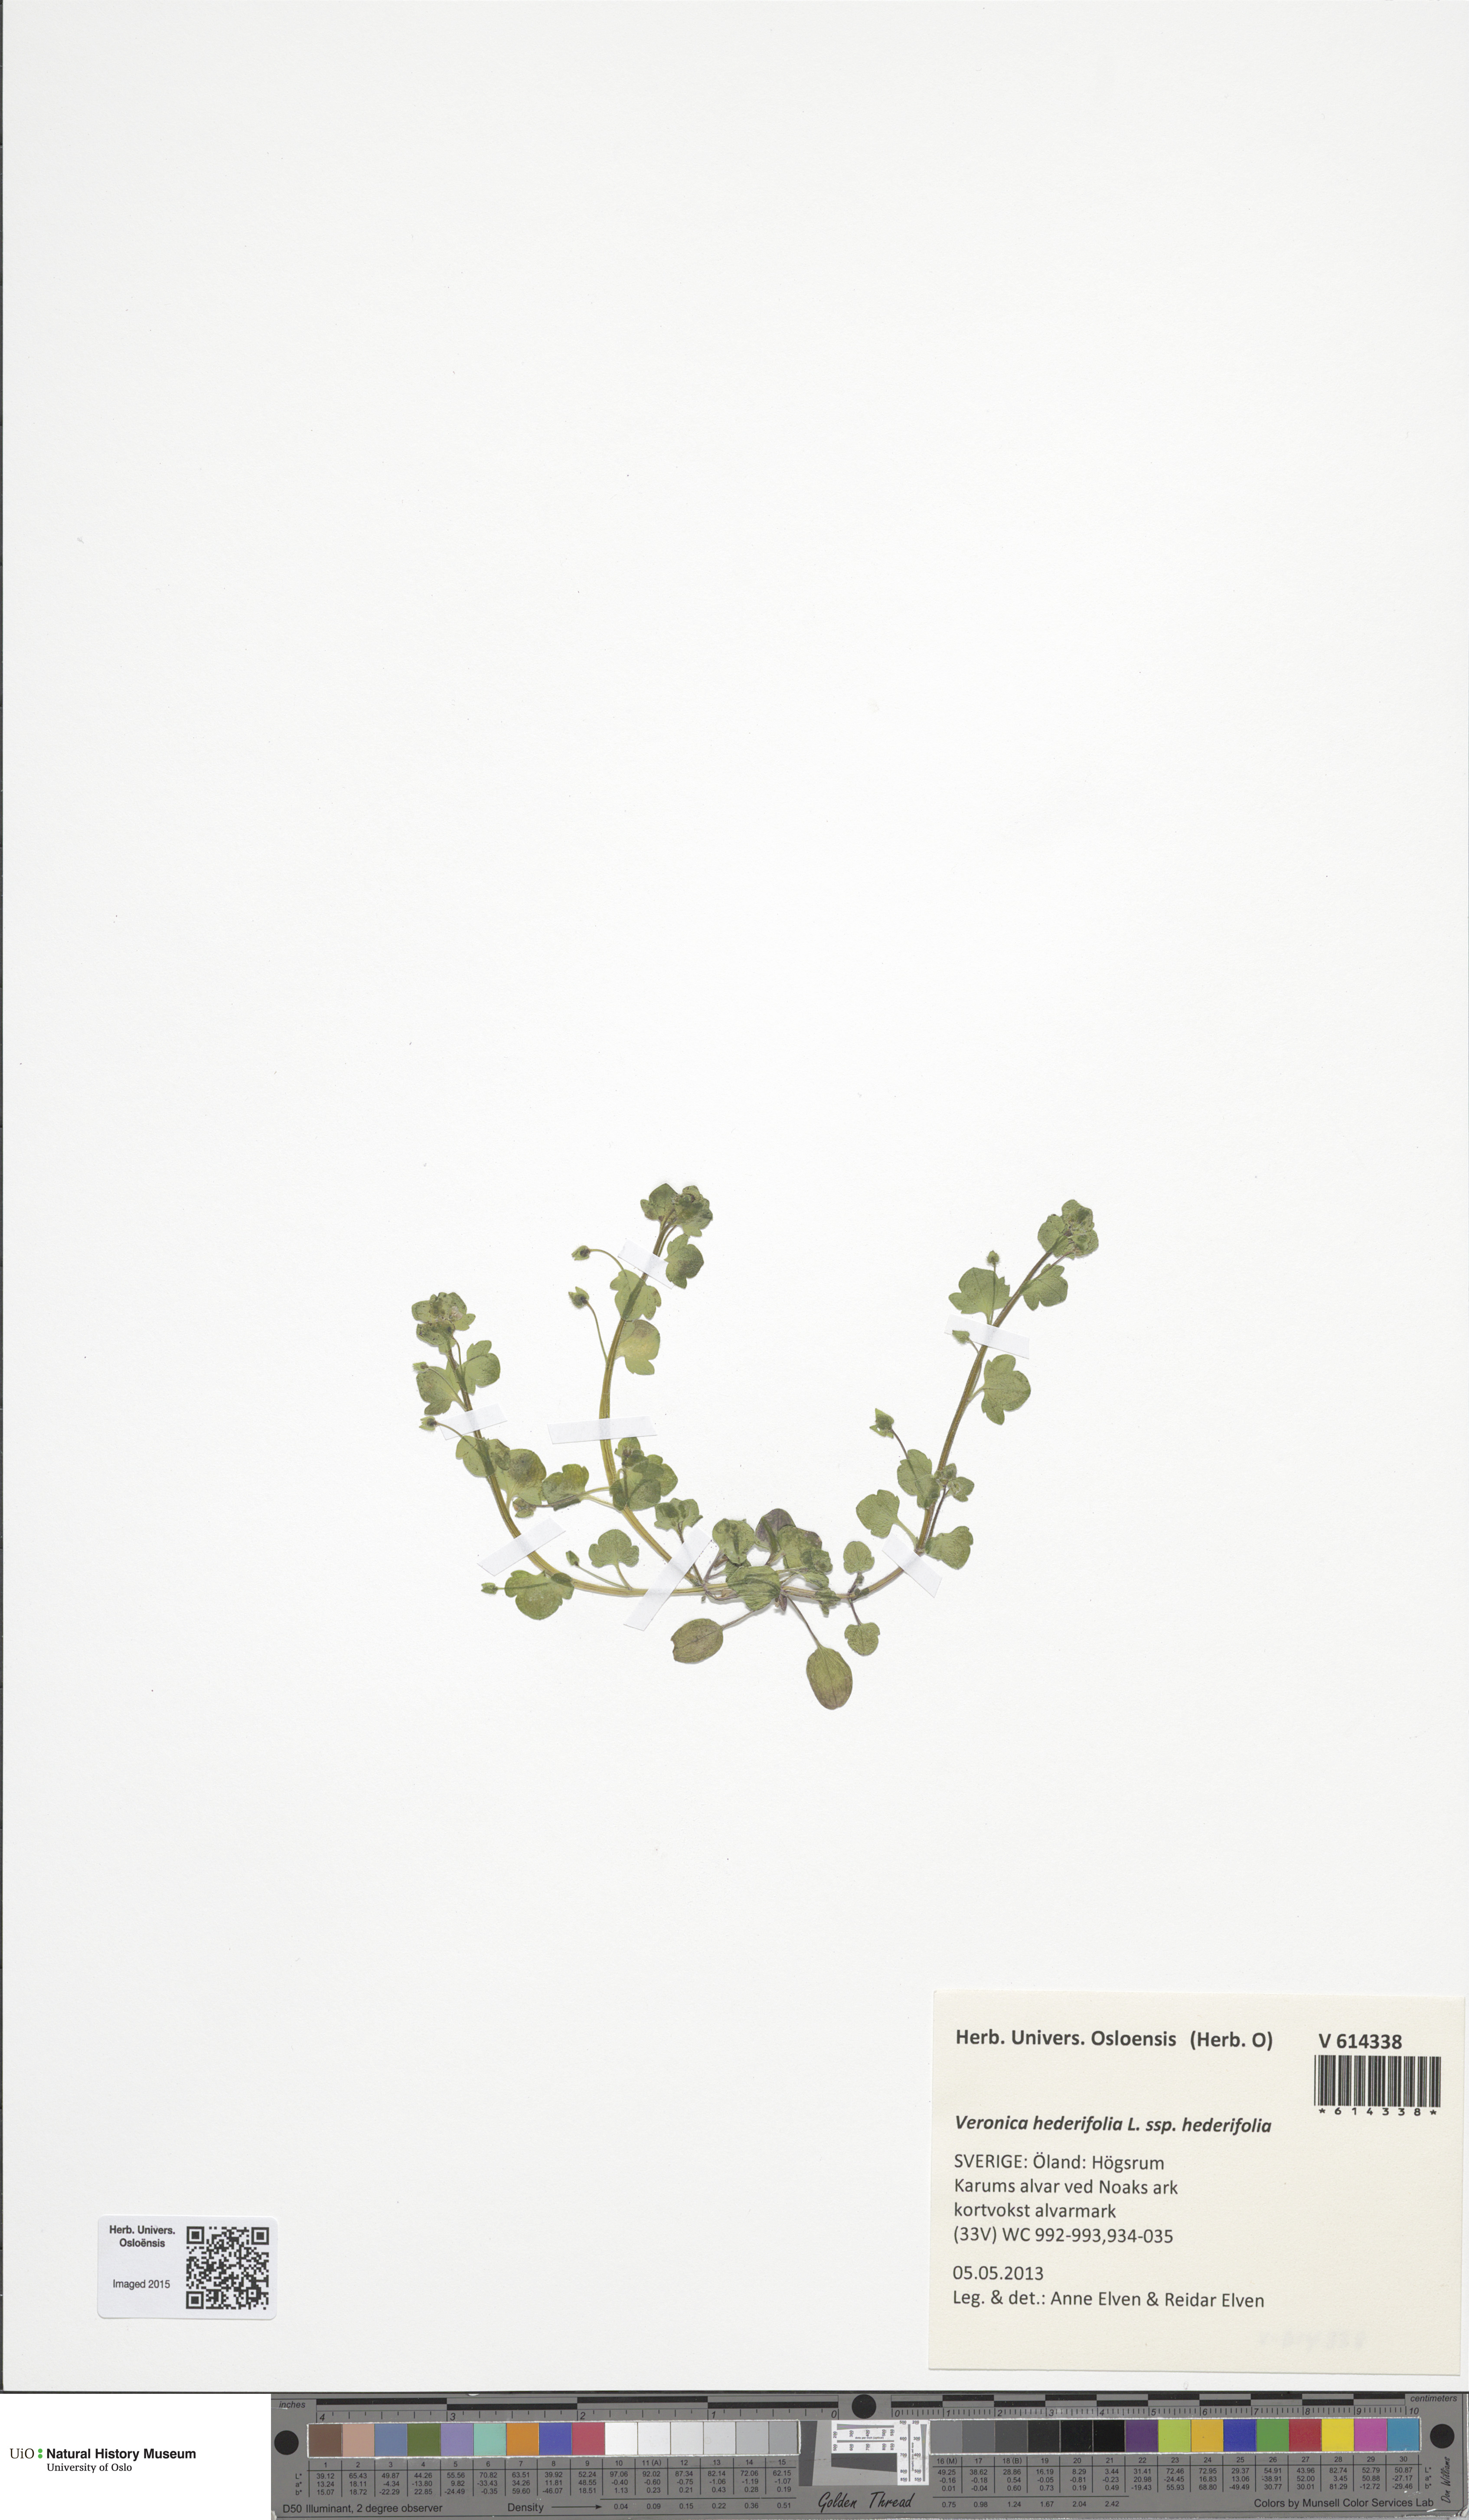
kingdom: Plantae
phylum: Tracheophyta
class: Magnoliopsida
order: Lamiales
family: Plantaginaceae
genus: Veronica
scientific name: Veronica hederifolia
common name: Ivy-leaved speedwell
